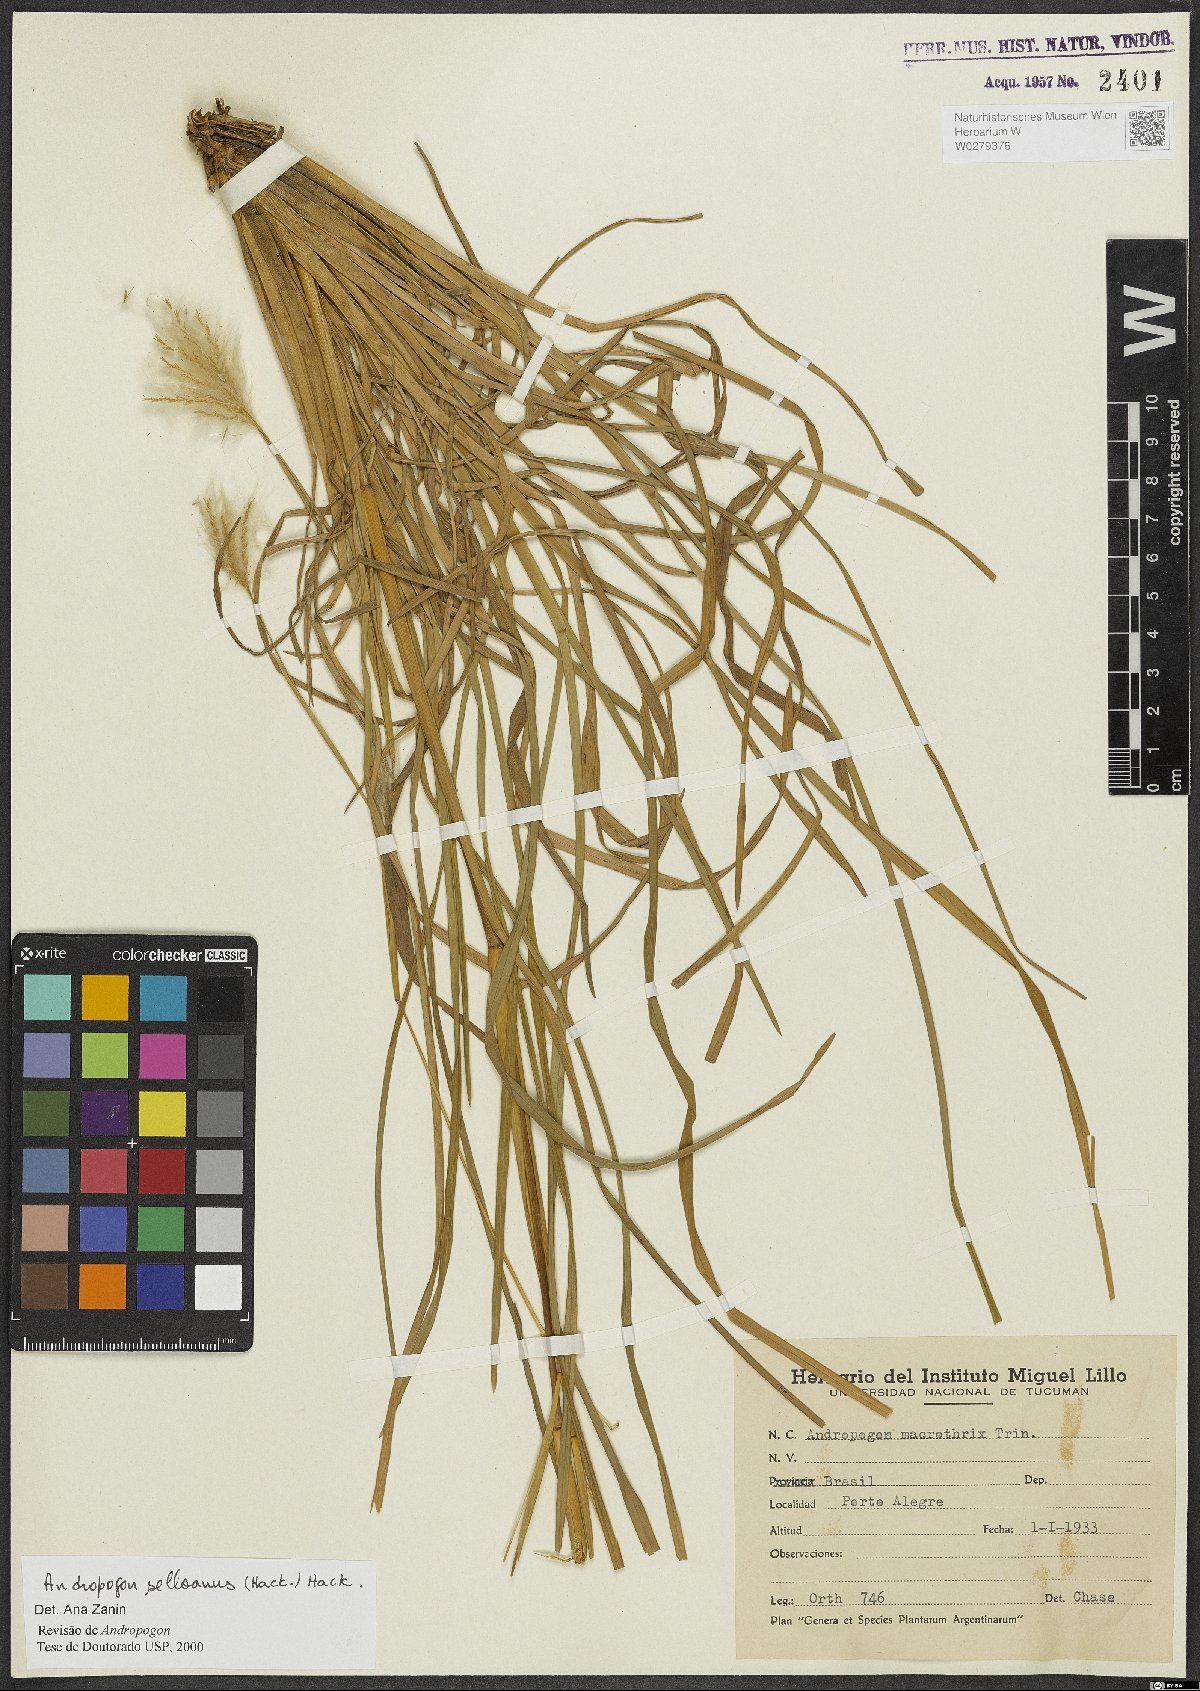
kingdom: Plantae
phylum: Tracheophyta
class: Liliopsida
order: Poales
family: Poaceae
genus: Andropogon
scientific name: Andropogon selloanus
